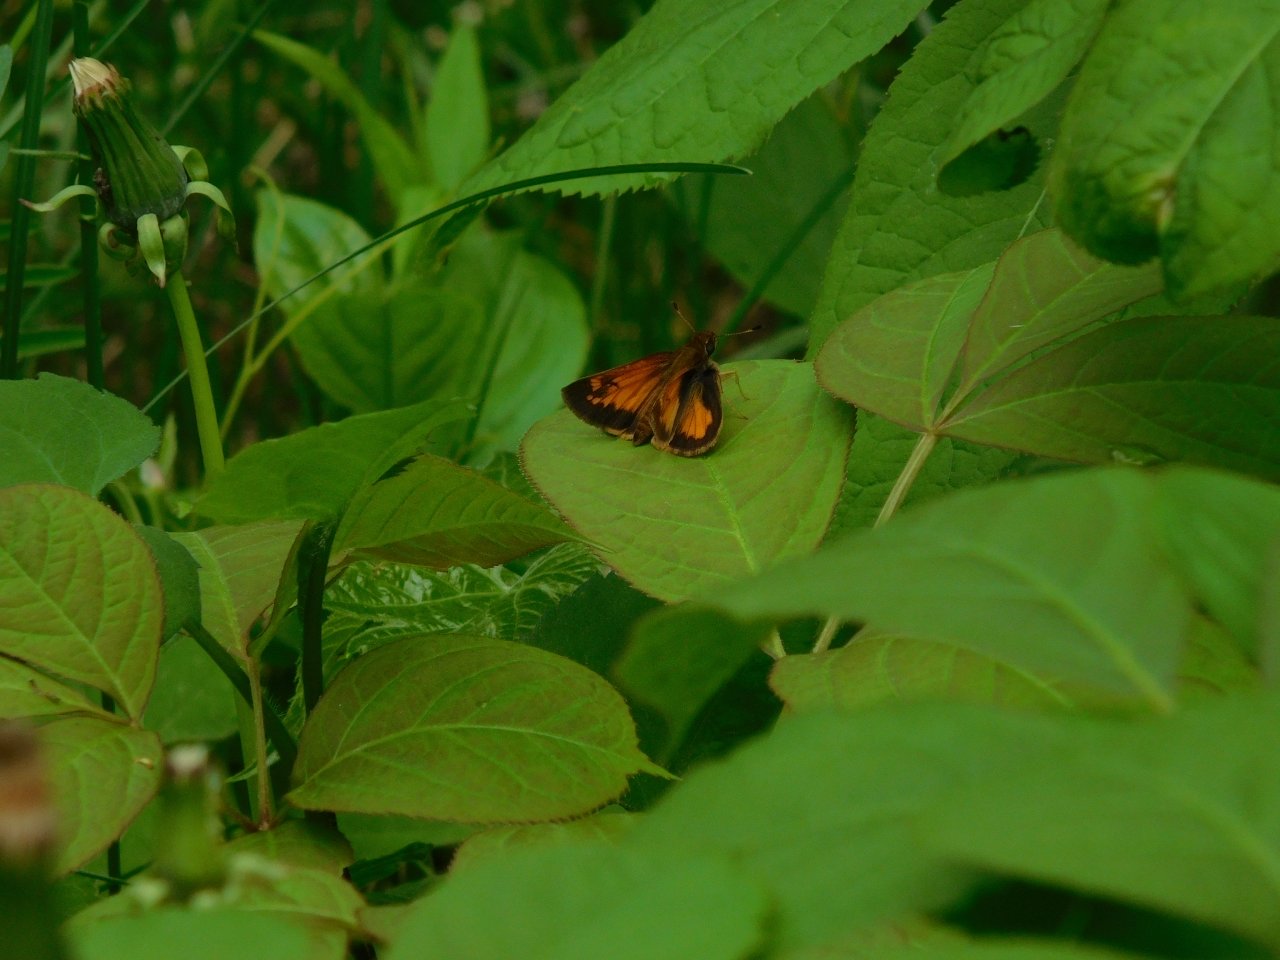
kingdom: Animalia
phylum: Arthropoda
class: Insecta
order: Lepidoptera
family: Hesperiidae
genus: Lon
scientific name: Lon hobomok
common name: Hobomok Skipper
